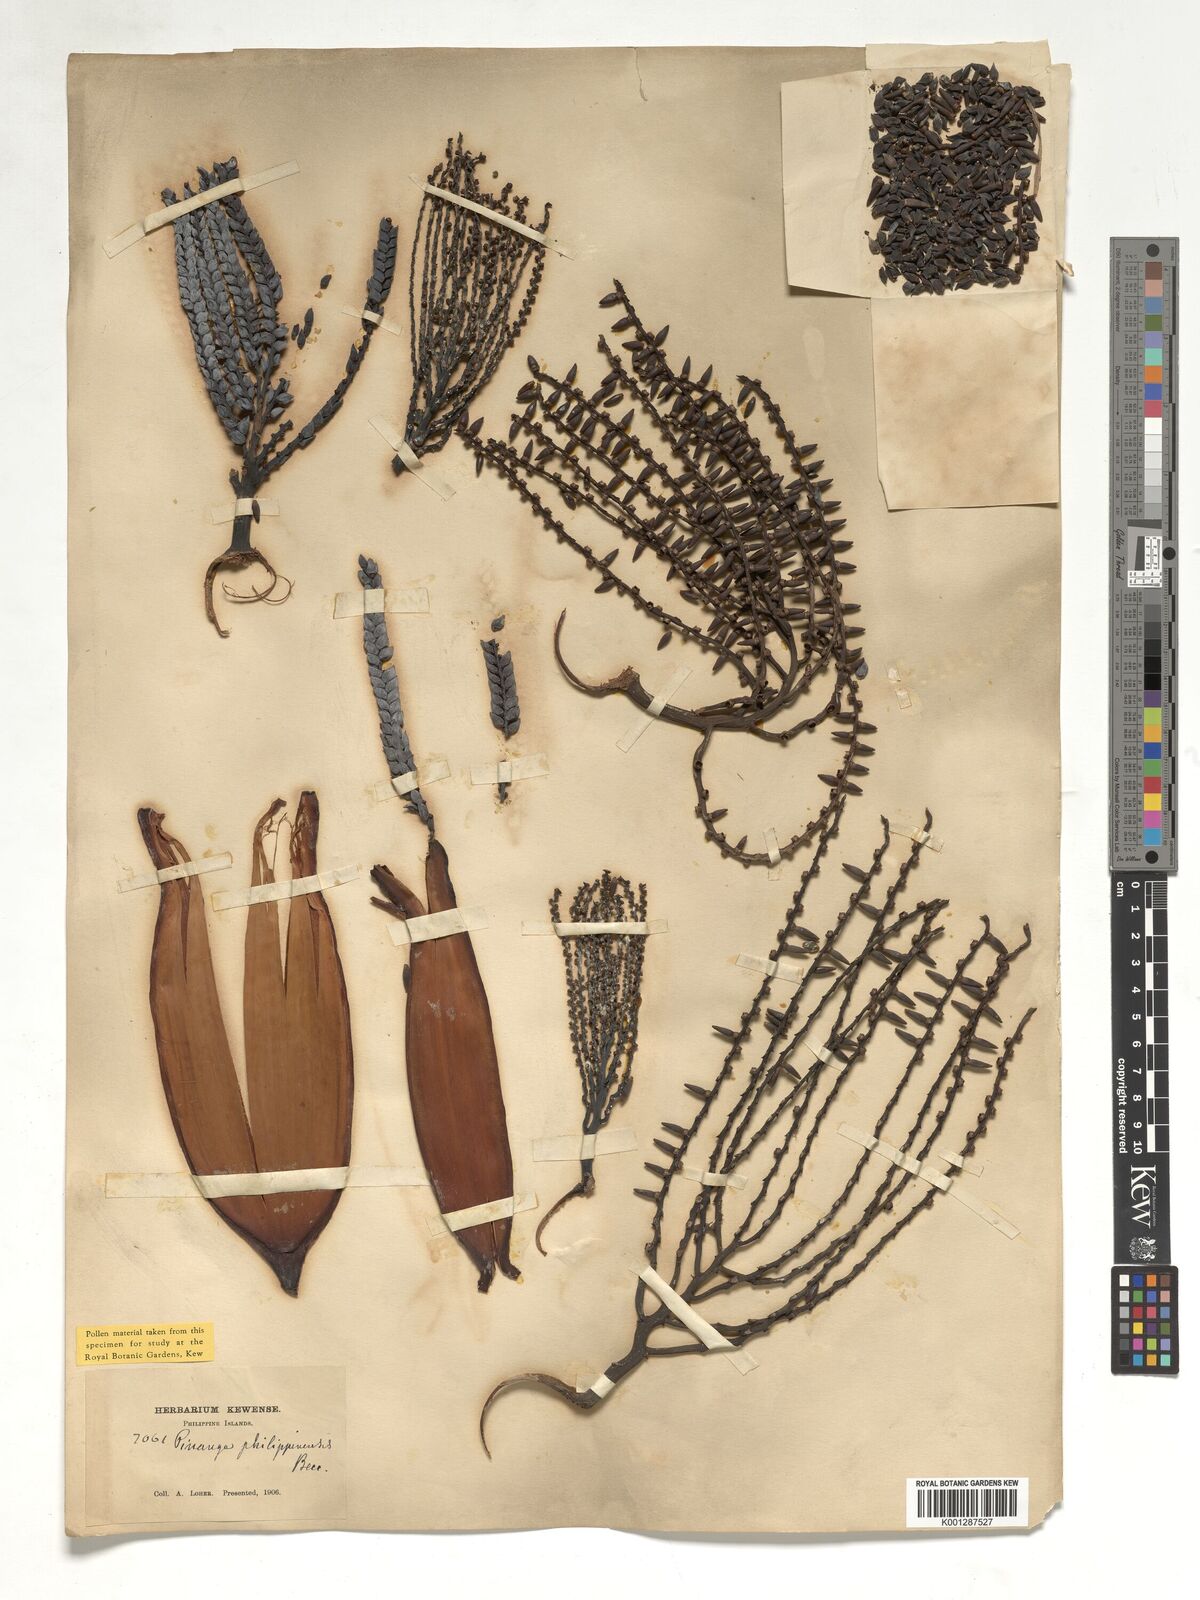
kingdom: Plantae
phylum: Tracheophyta
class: Liliopsida
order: Arecales
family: Arecaceae
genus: Pinanga
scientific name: Pinanga philippinensis
